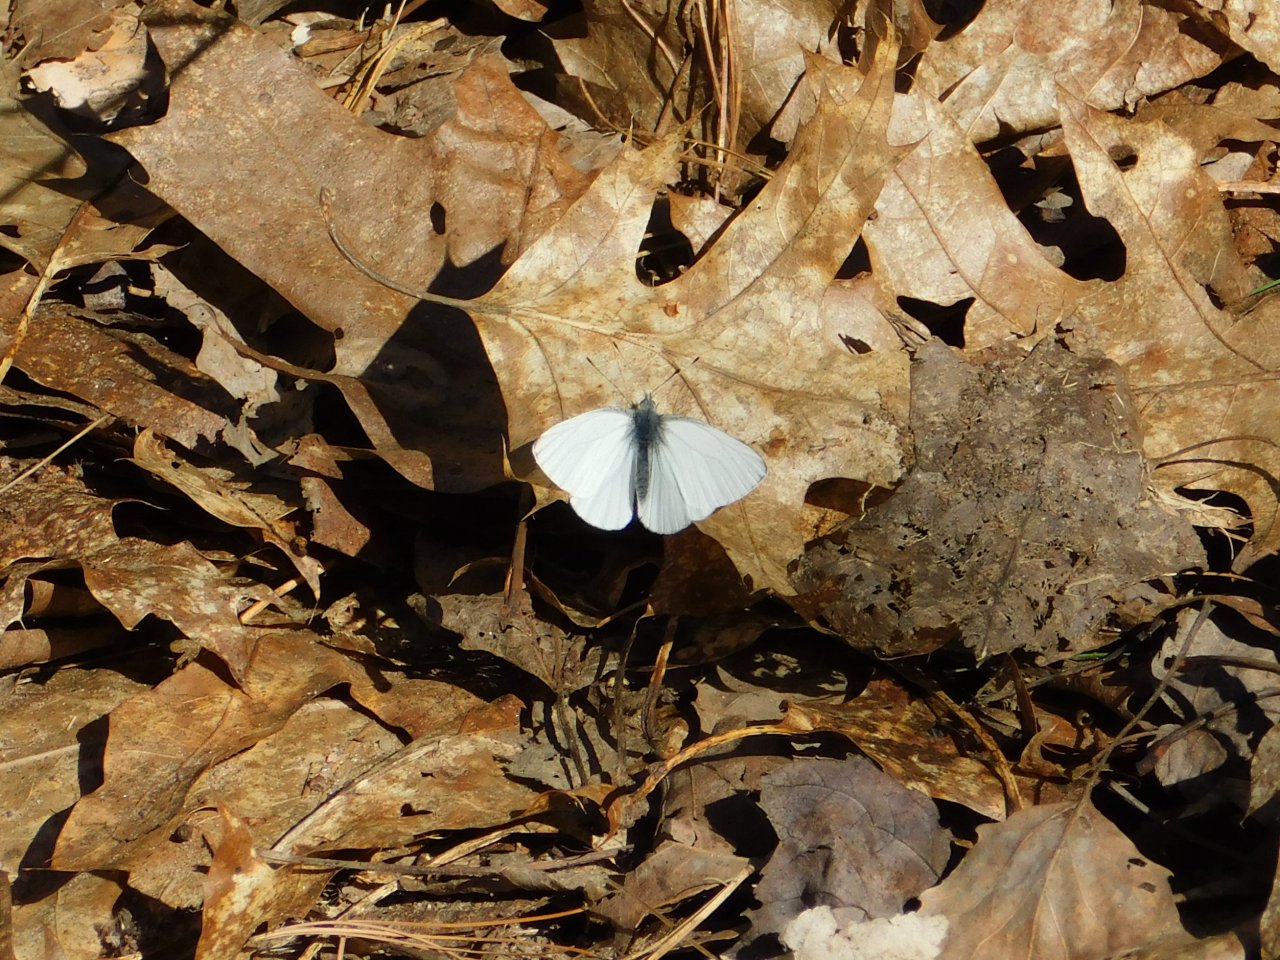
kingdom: Animalia
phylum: Arthropoda
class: Insecta
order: Lepidoptera
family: Pieridae
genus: Pieris
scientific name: Pieris oleracea
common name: Mustard White
